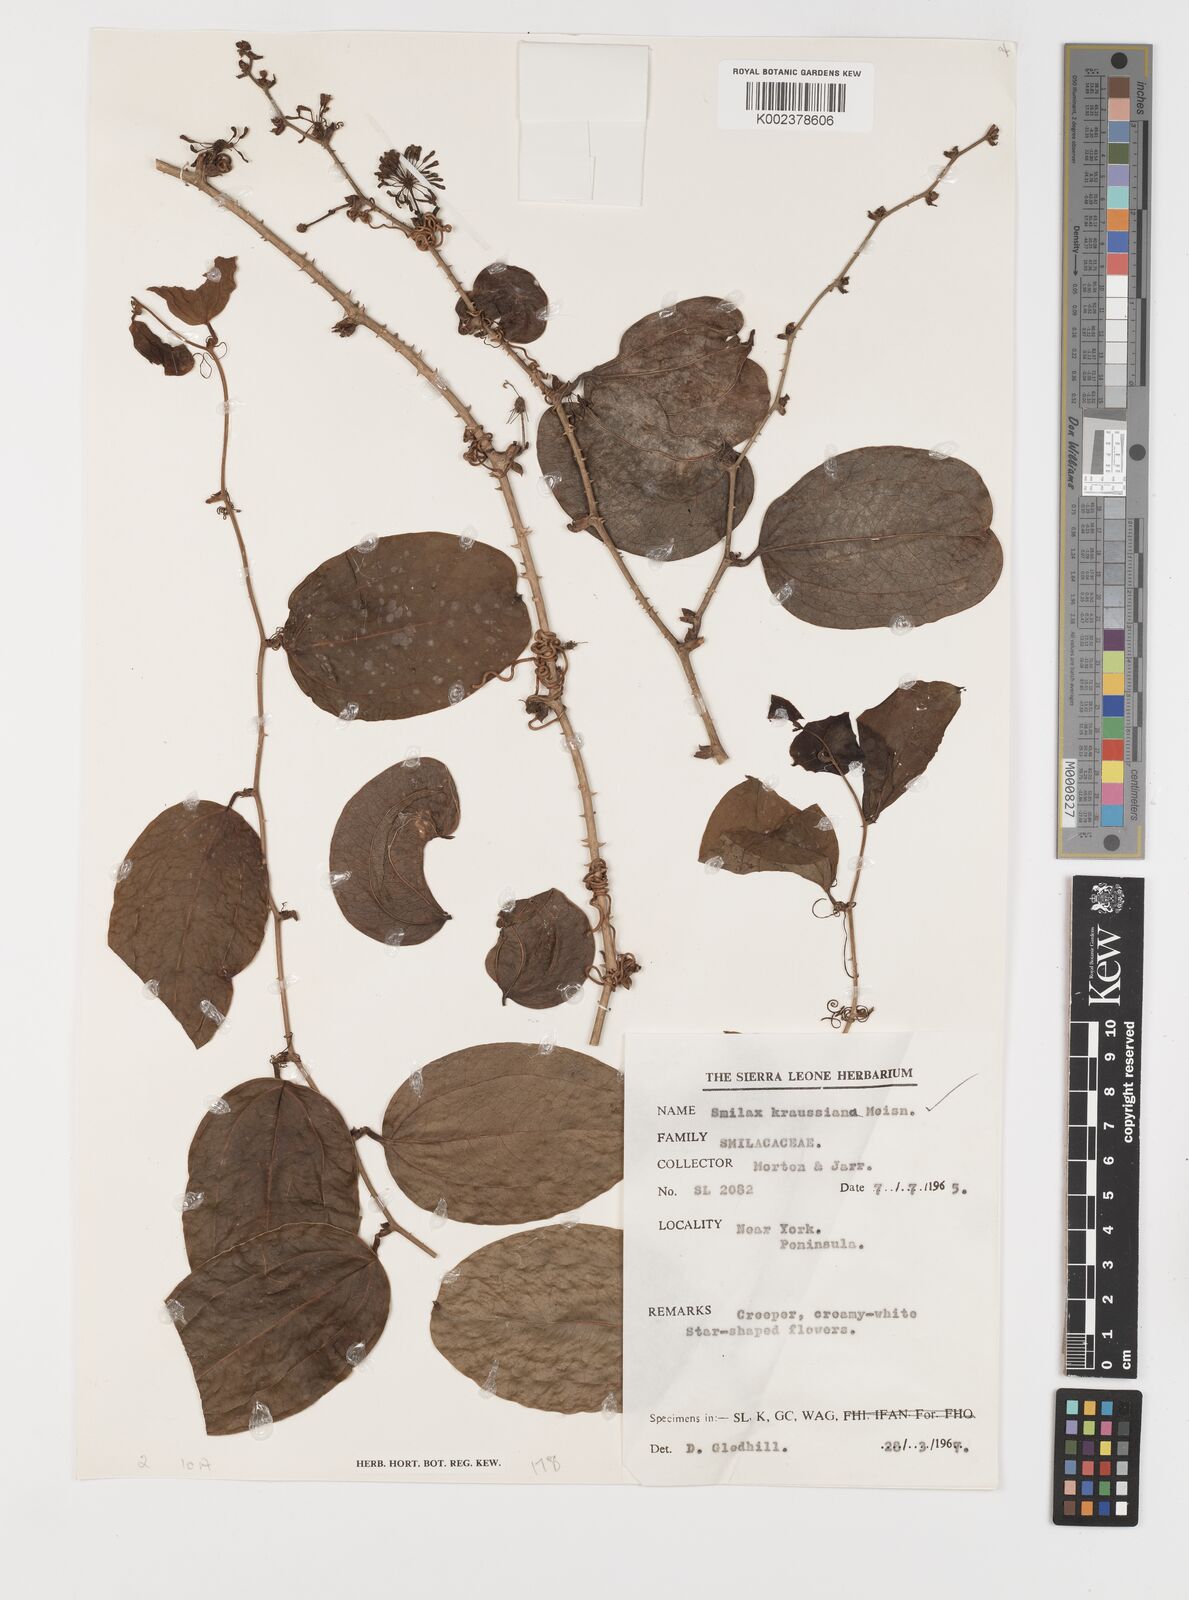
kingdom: Plantae
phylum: Tracheophyta
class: Liliopsida
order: Liliales
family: Smilacaceae
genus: Smilax
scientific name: Smilax anceps
